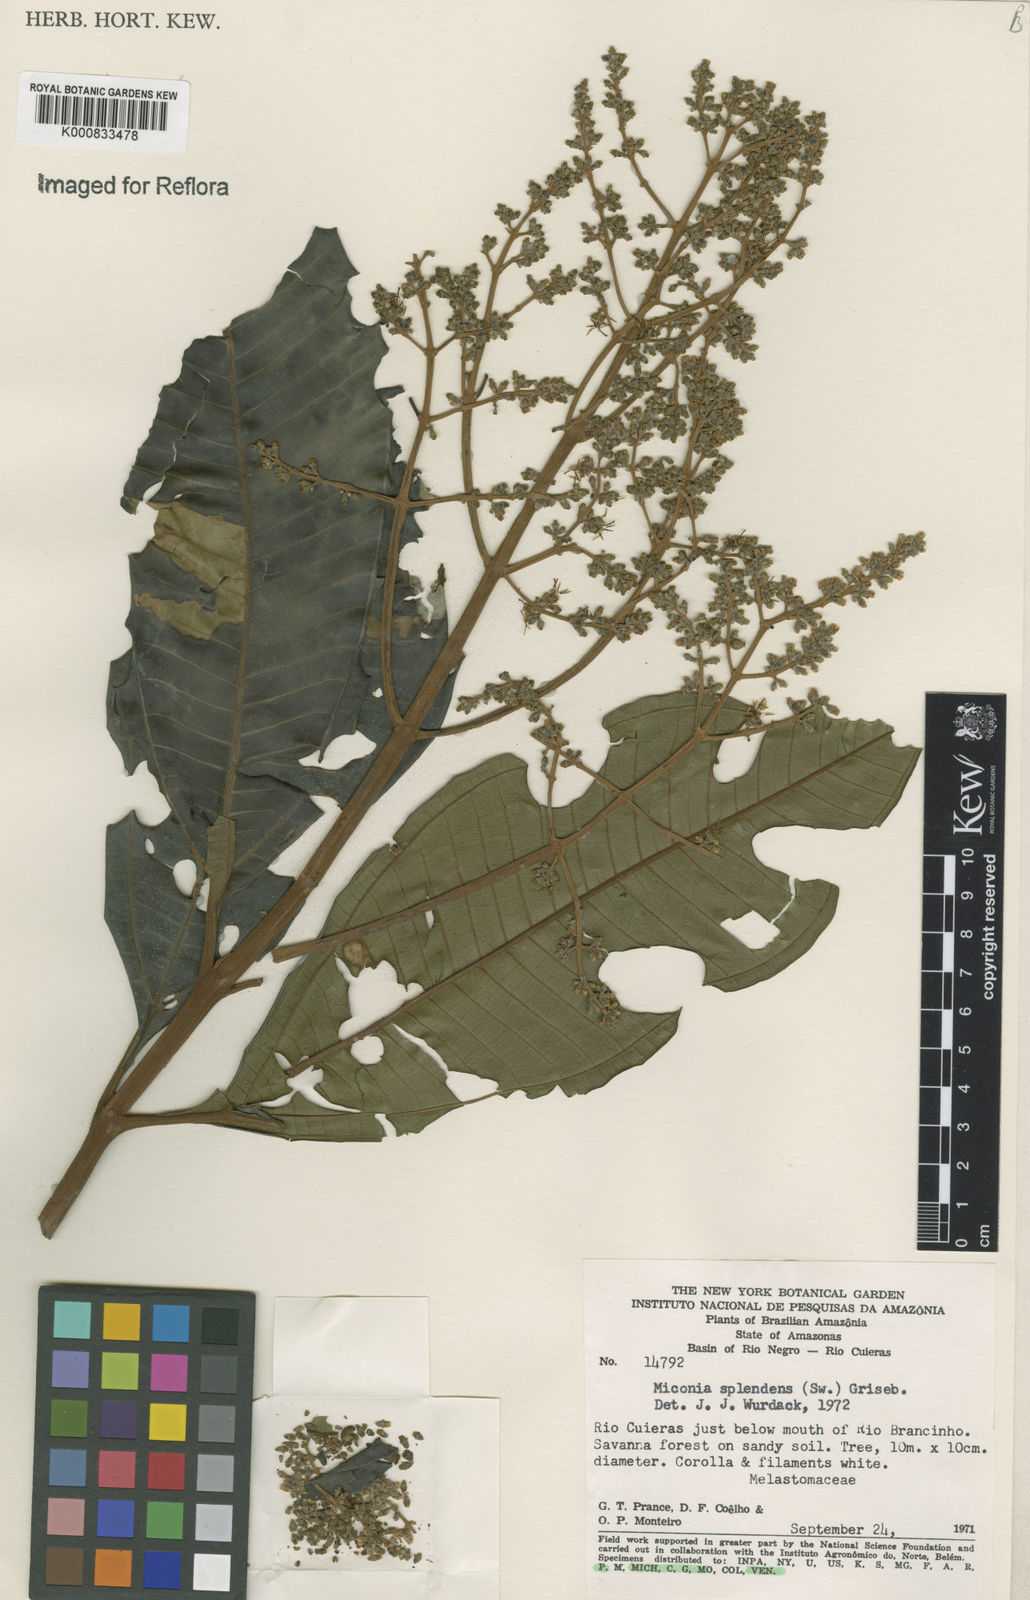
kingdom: Plantae
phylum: Tracheophyta
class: Magnoliopsida
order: Myrtales
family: Melastomataceae
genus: Miconia
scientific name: Miconia splendens
